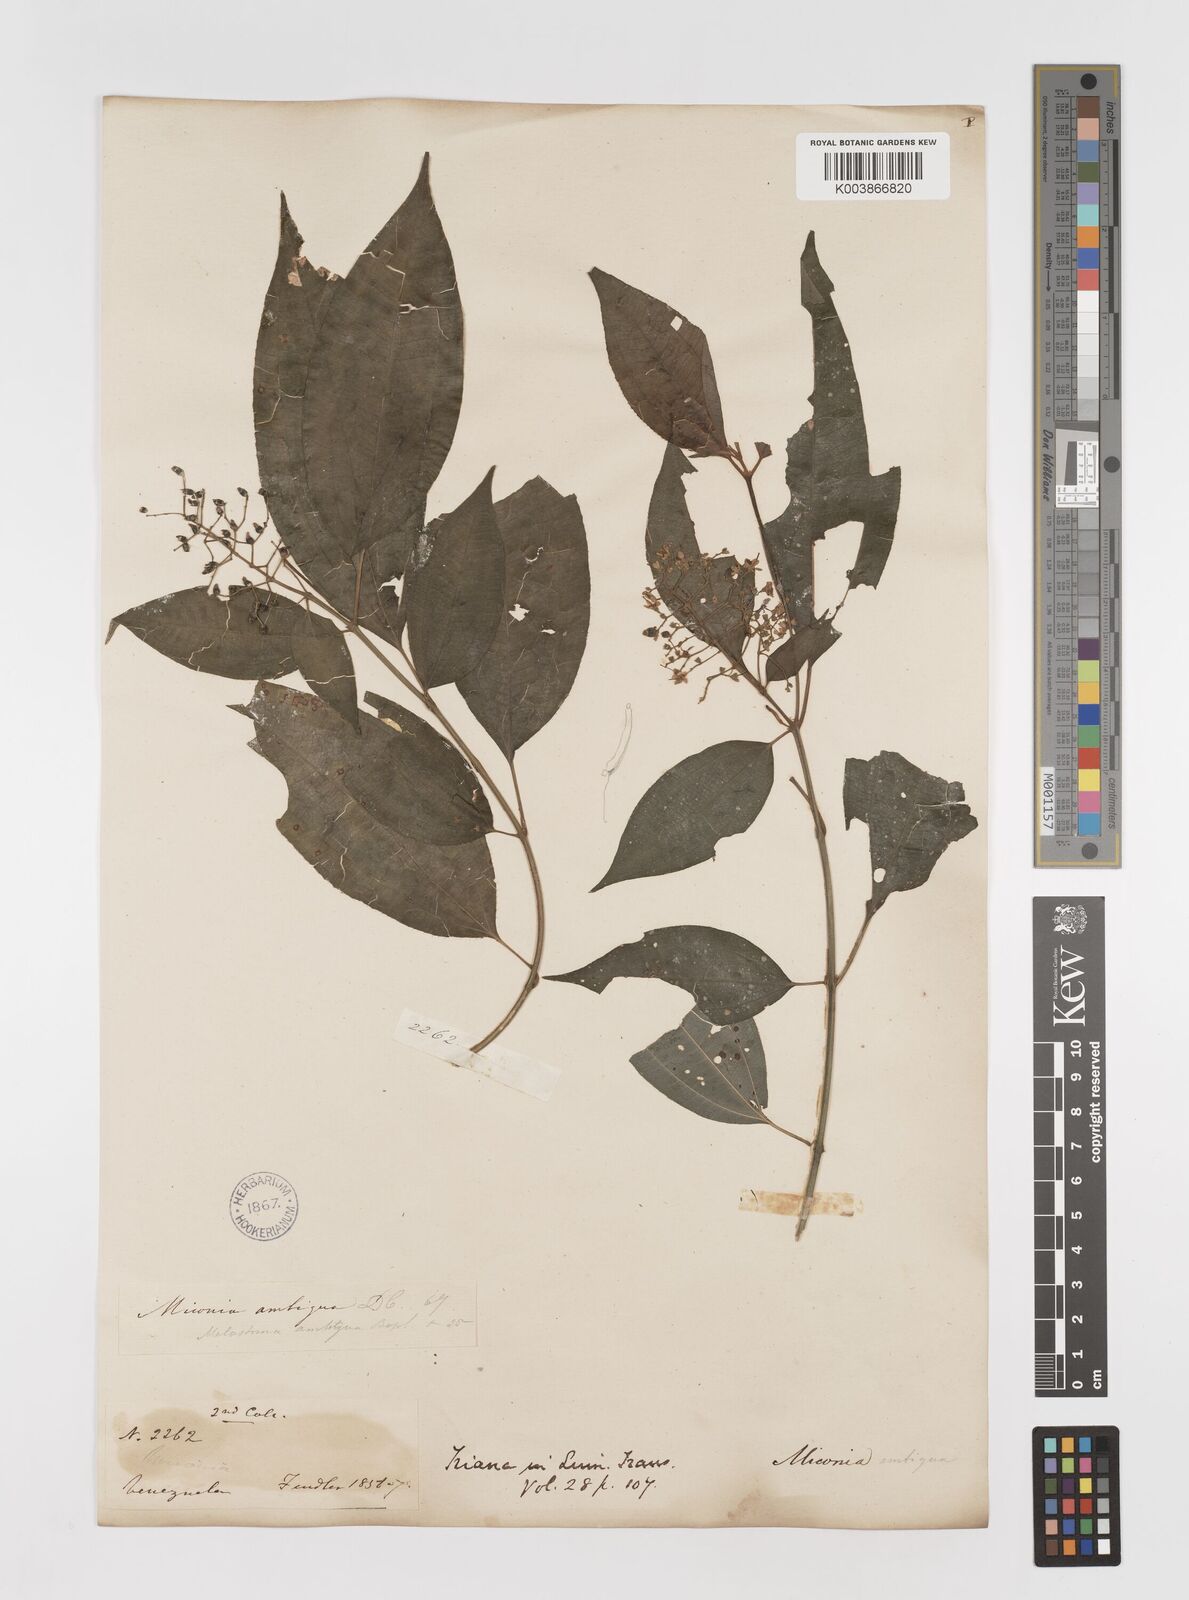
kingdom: Plantae
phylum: Tracheophyta
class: Magnoliopsida
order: Myrtales
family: Melastomataceae
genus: Miconia
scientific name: Miconia virescens
